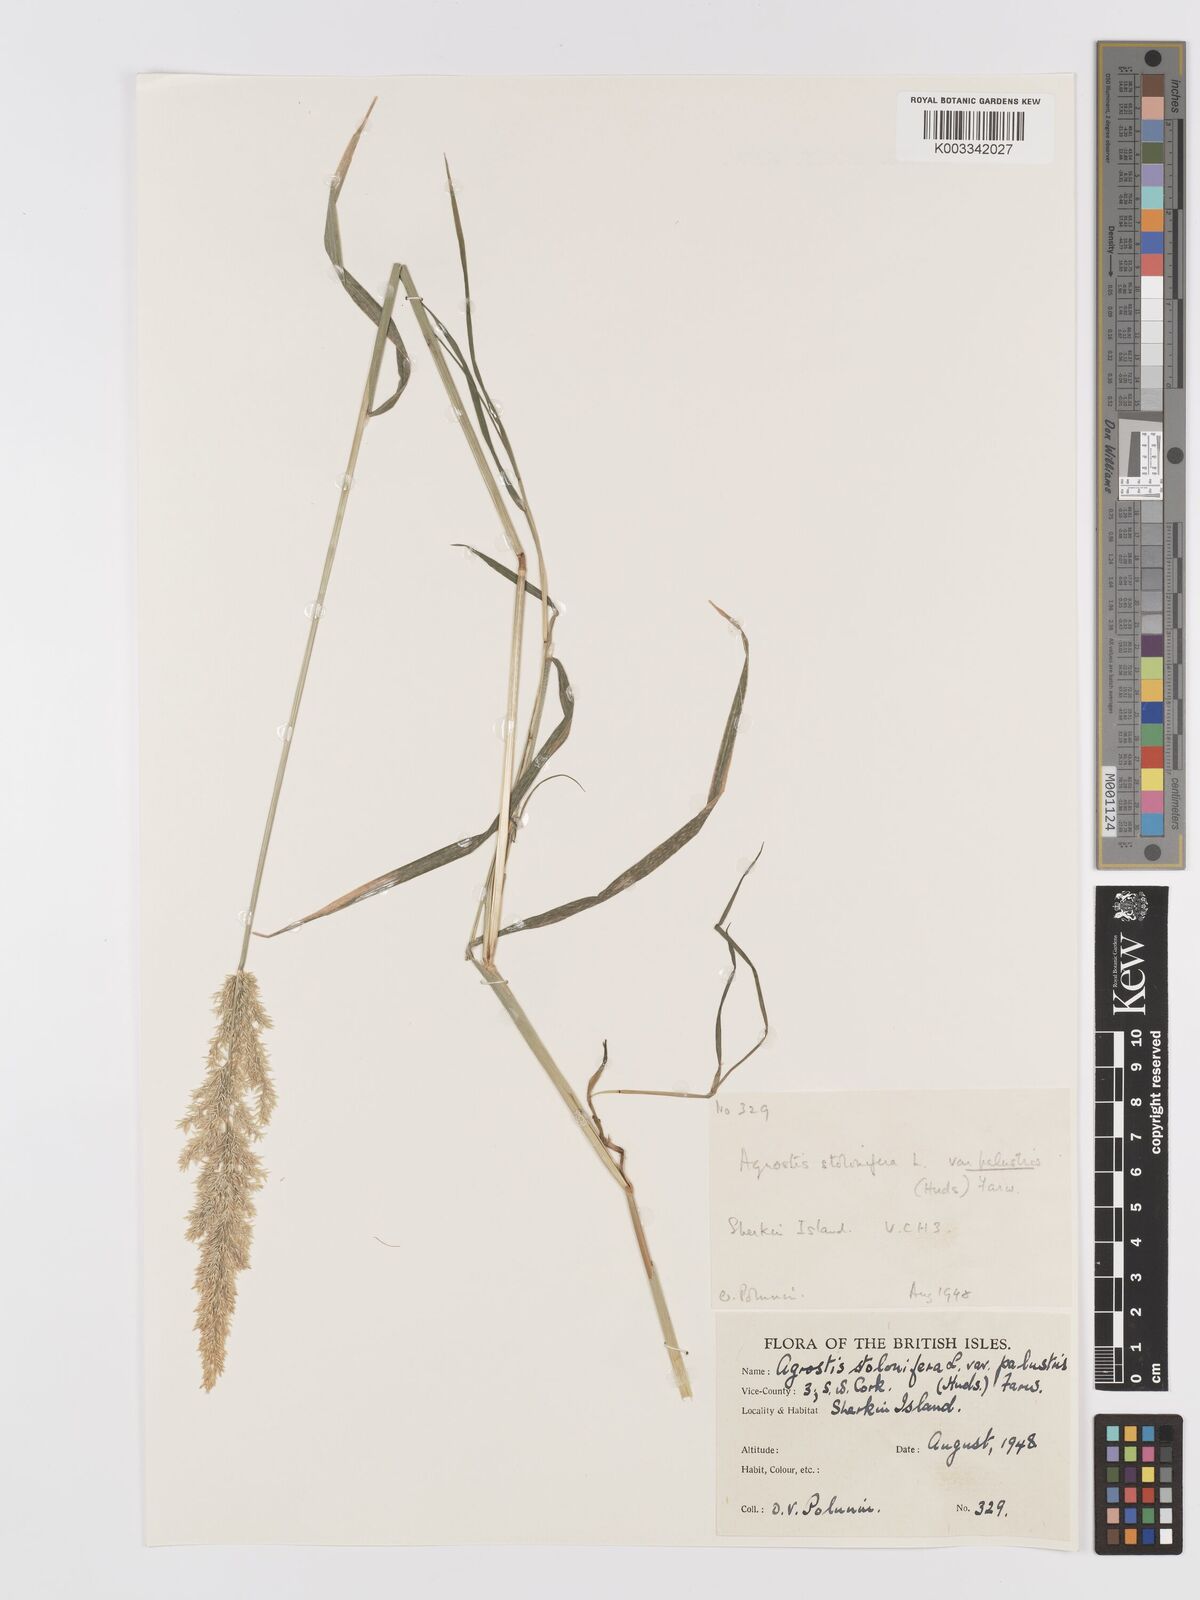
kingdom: Plantae
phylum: Tracheophyta
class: Liliopsida
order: Poales
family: Poaceae
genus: Agrostis
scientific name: Agrostis stolonifera
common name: Creeping bentgrass
